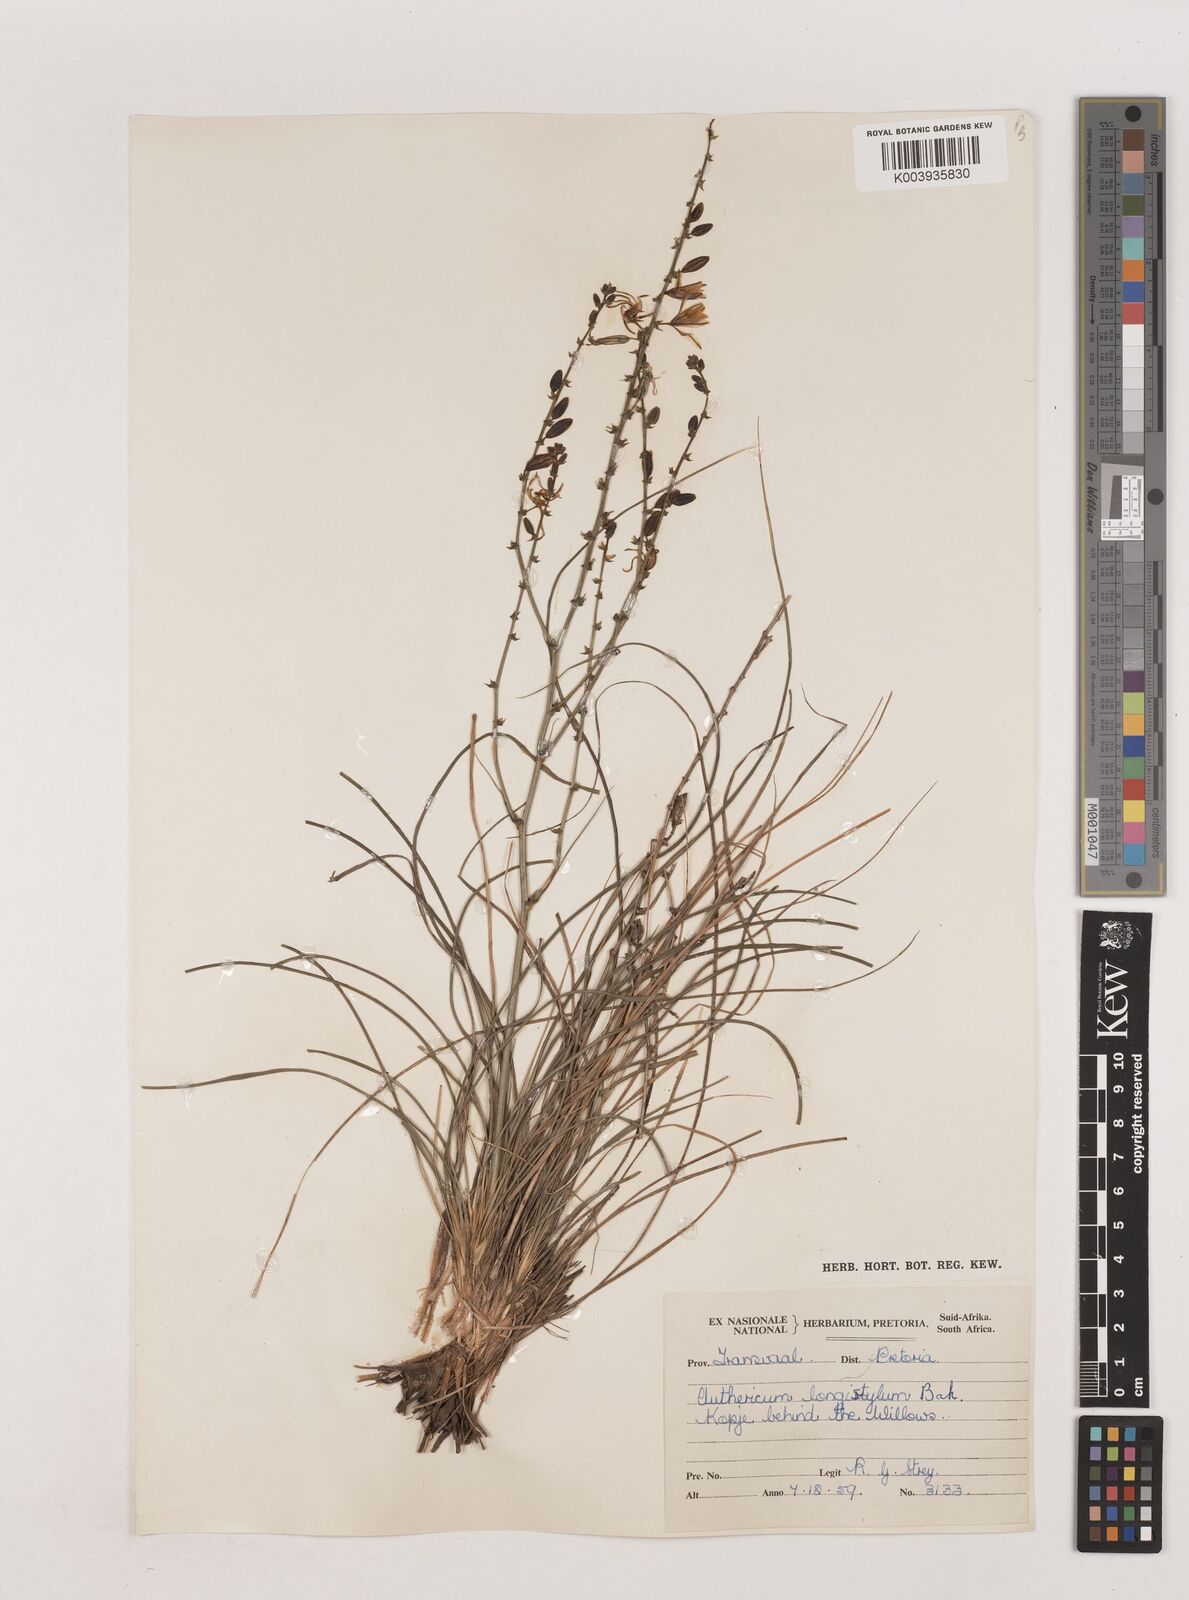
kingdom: Plantae
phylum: Tracheophyta
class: Liliopsida
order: Asparagales
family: Asparagaceae
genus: Chlorophytum
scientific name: Chlorophytum recurvifolium
